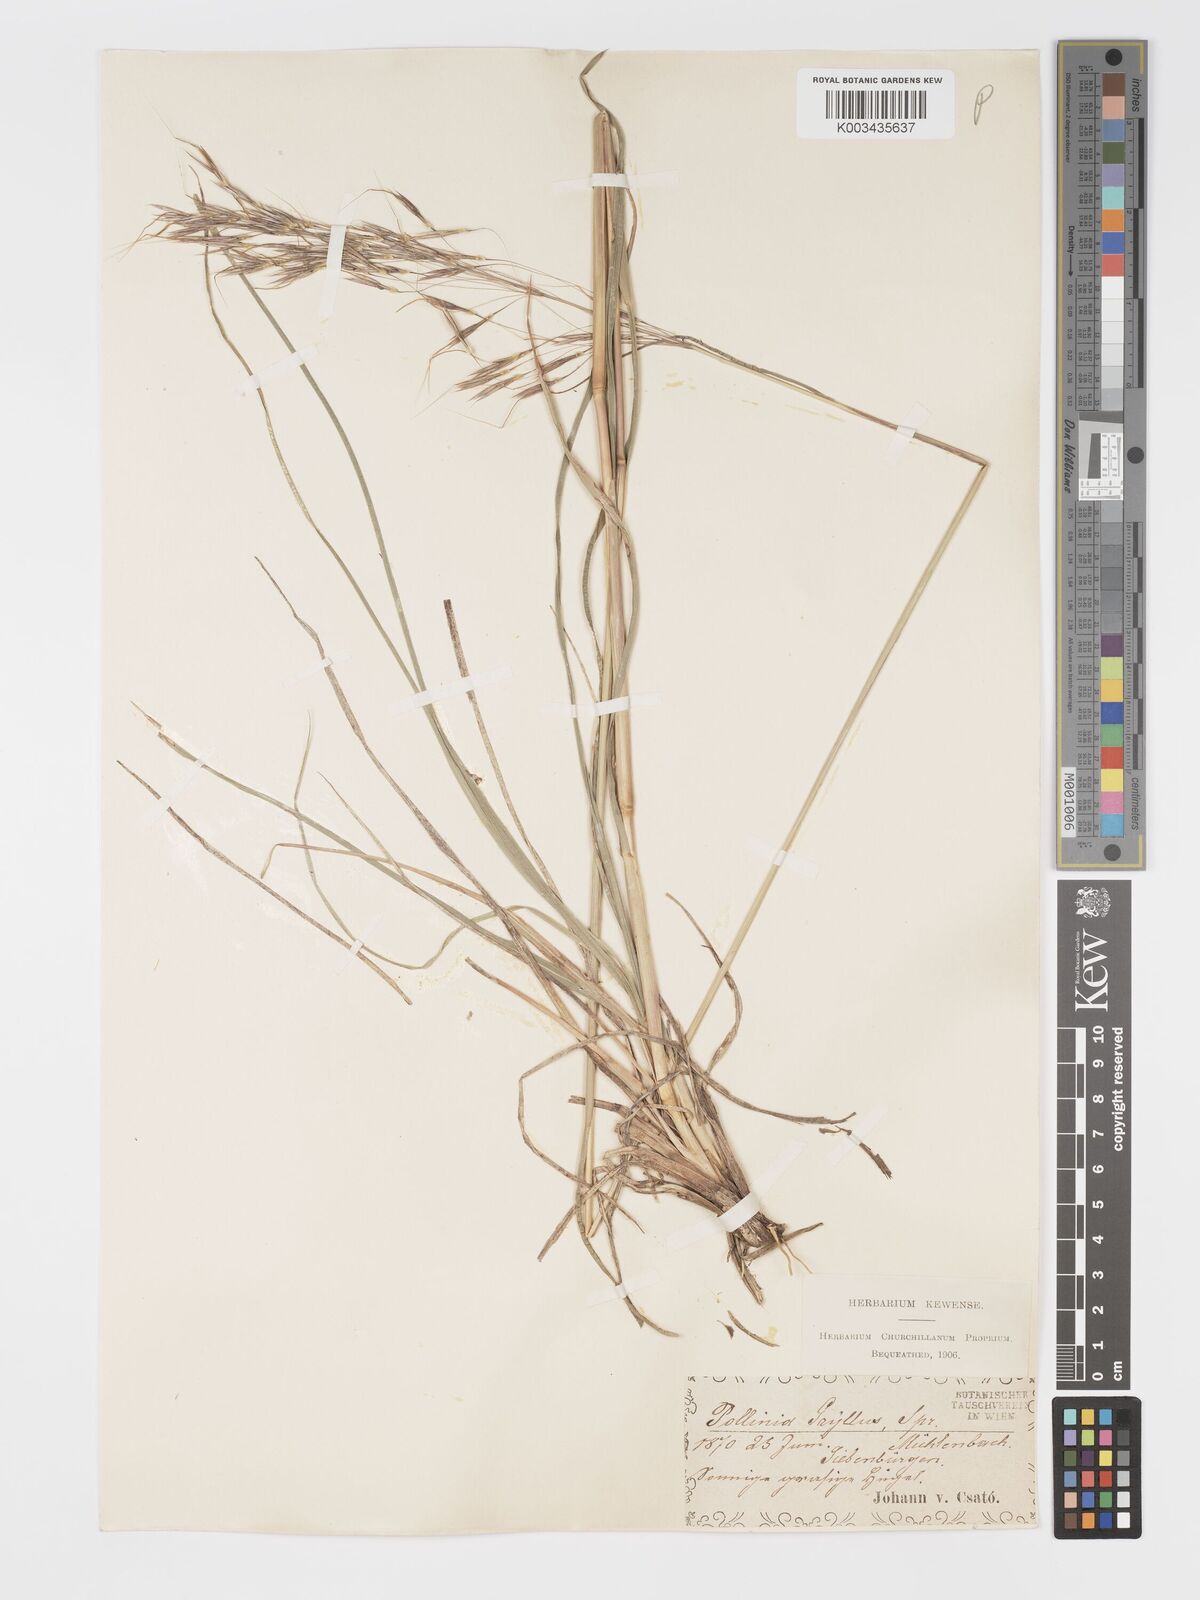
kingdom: Plantae
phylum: Tracheophyta
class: Liliopsida
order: Poales
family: Poaceae
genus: Chrysopogon
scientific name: Chrysopogon gryllus
